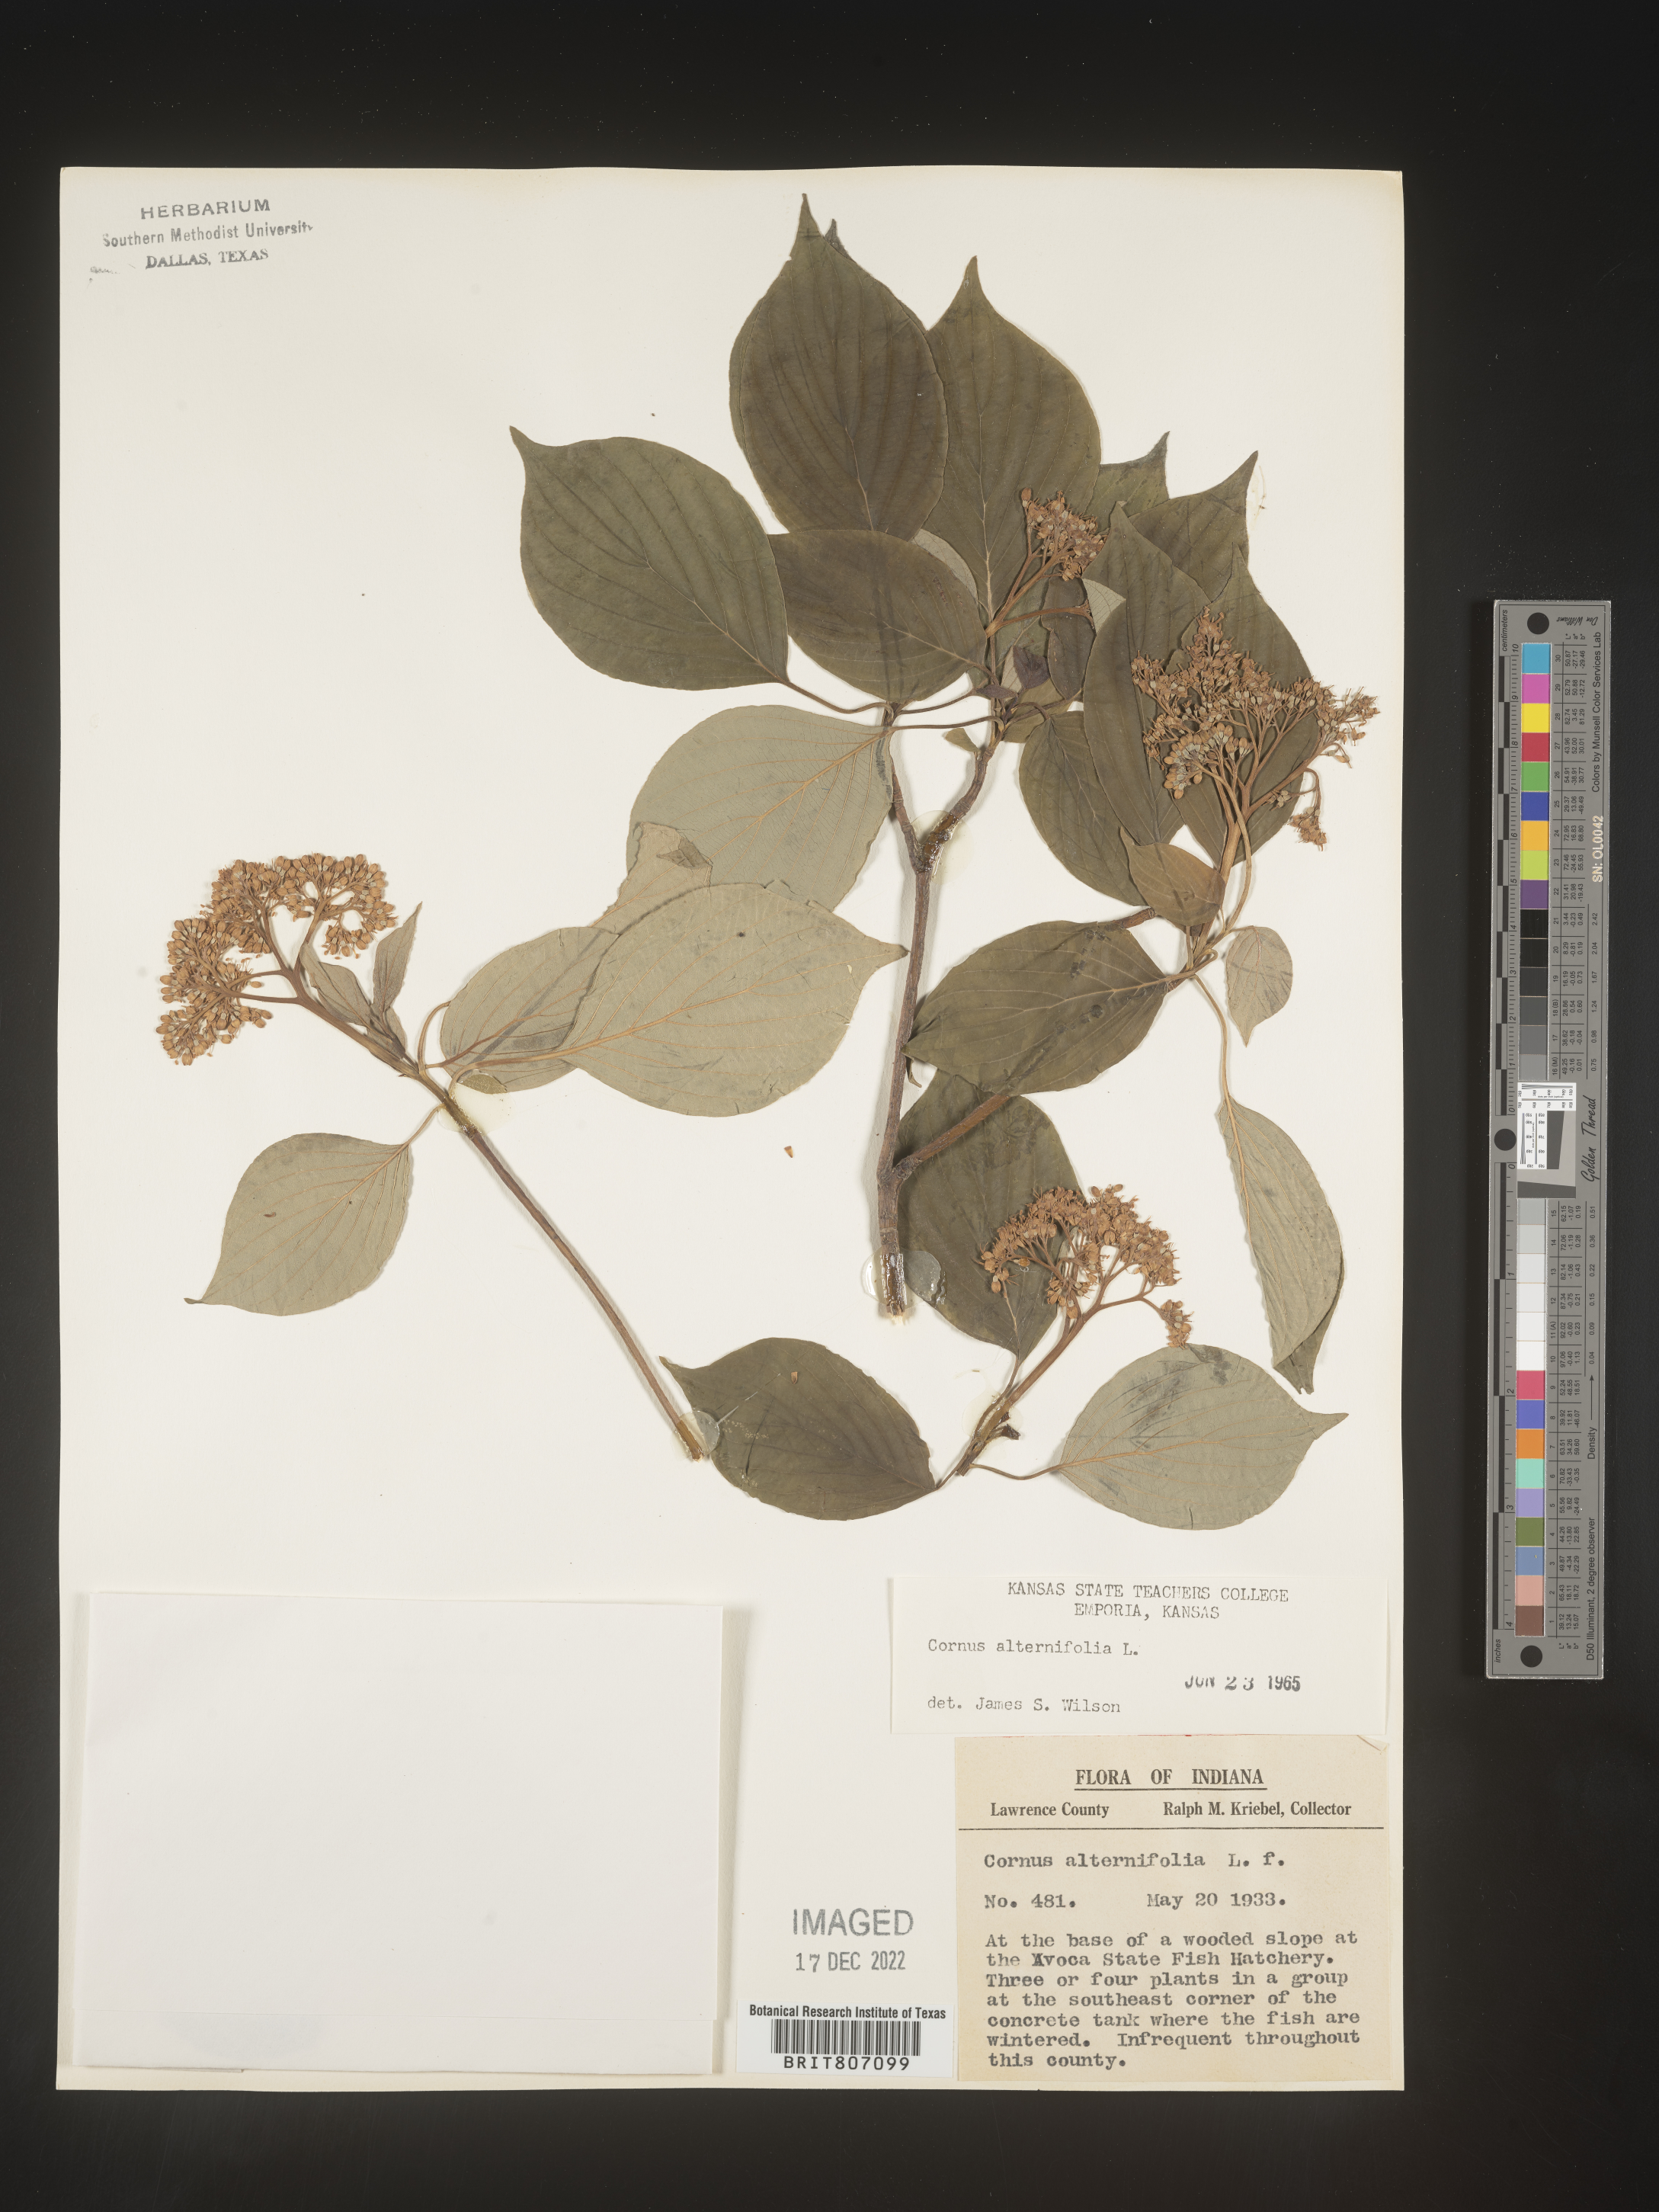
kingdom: Plantae
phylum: Tracheophyta
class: Magnoliopsida
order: Cornales
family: Cornaceae
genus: Cornus
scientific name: Cornus alternifolia
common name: Pagoda dogwood
